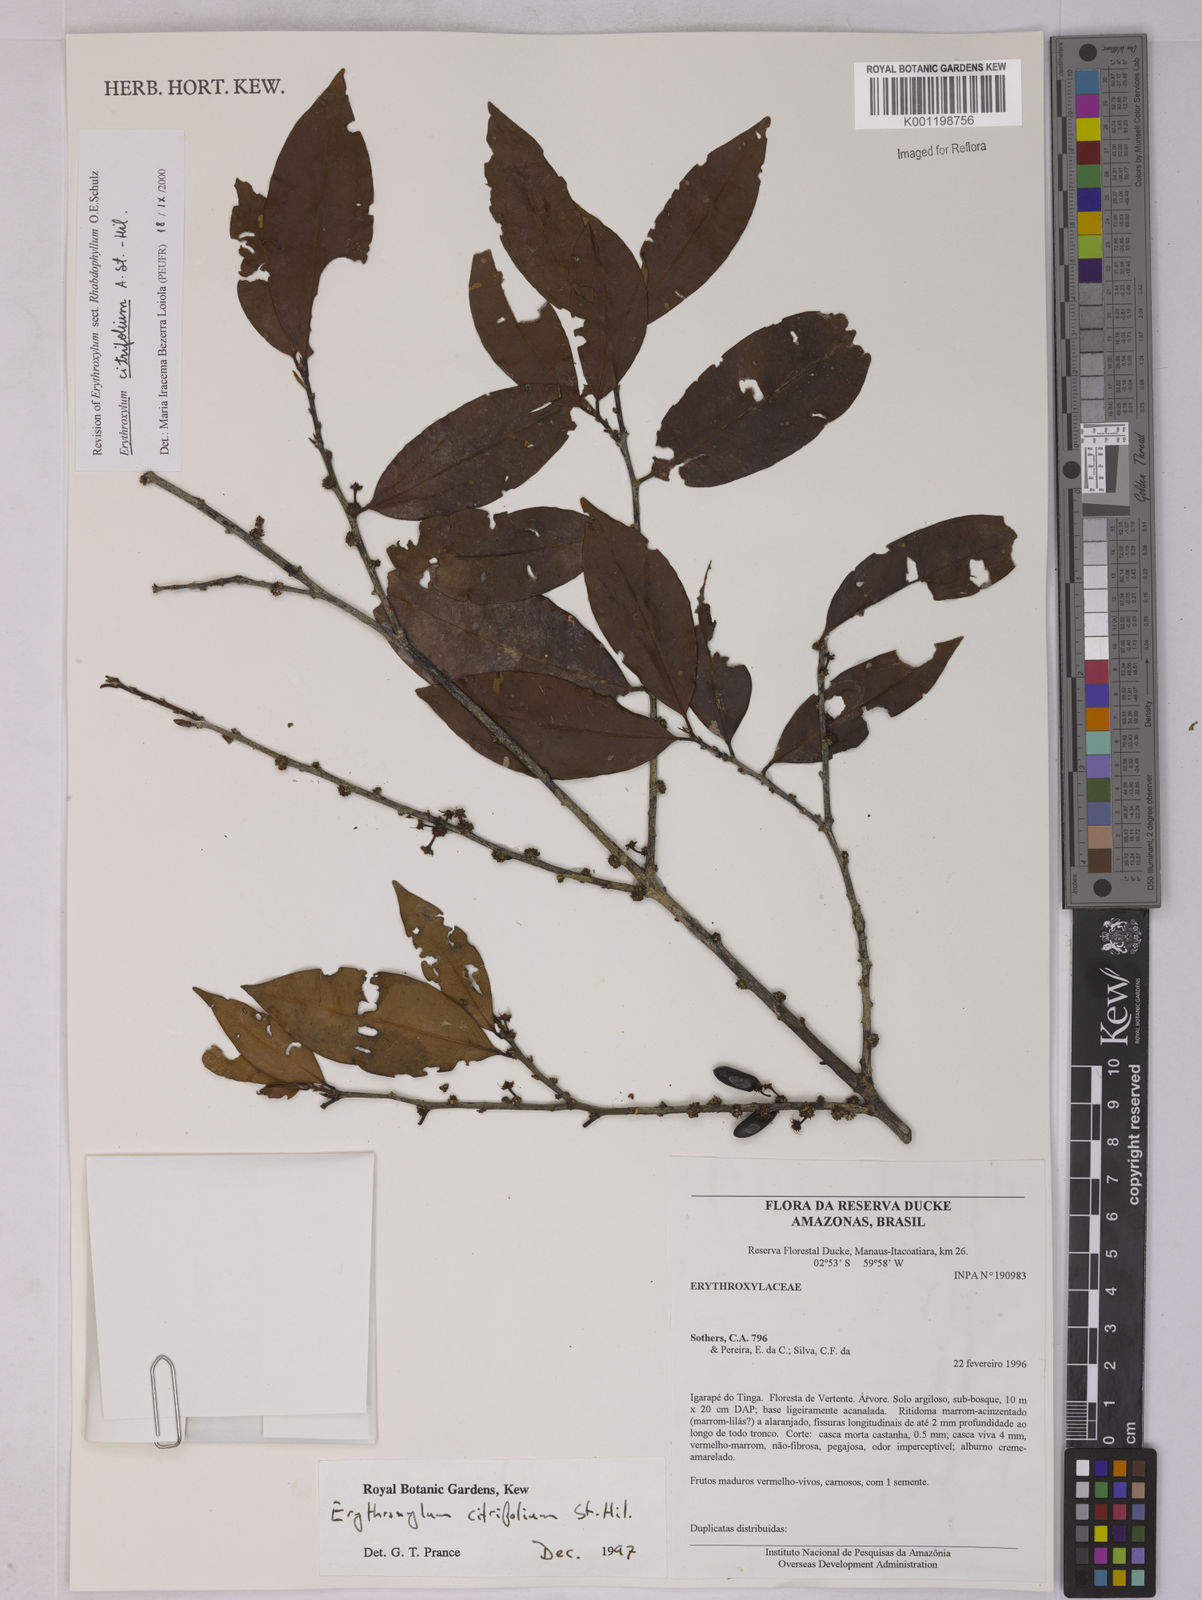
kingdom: Plantae
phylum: Tracheophyta
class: Magnoliopsida
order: Malpighiales
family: Erythroxylaceae
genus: Erythroxylum
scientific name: Erythroxylum citrifolium
